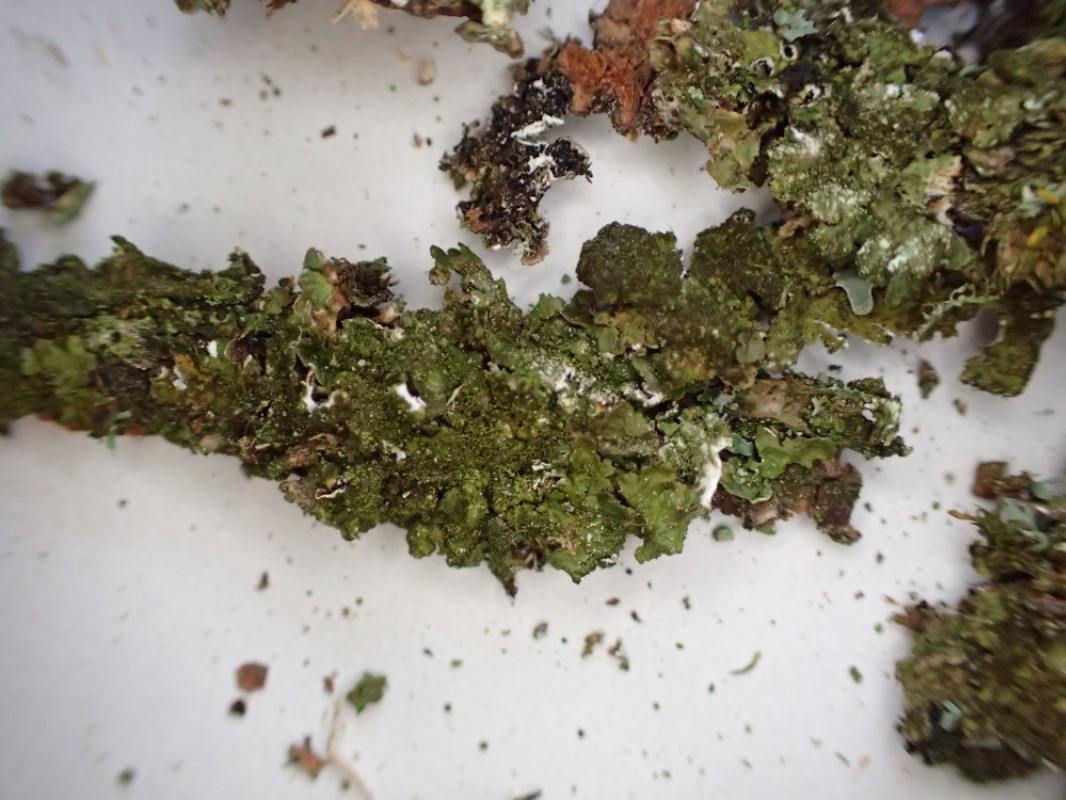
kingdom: Fungi
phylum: Ascomycota
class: Lecanoromycetes
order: Lecanorales
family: Parmeliaceae
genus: Melanelixia
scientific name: Melanelixia subaurifera
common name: guldpudret skållav
